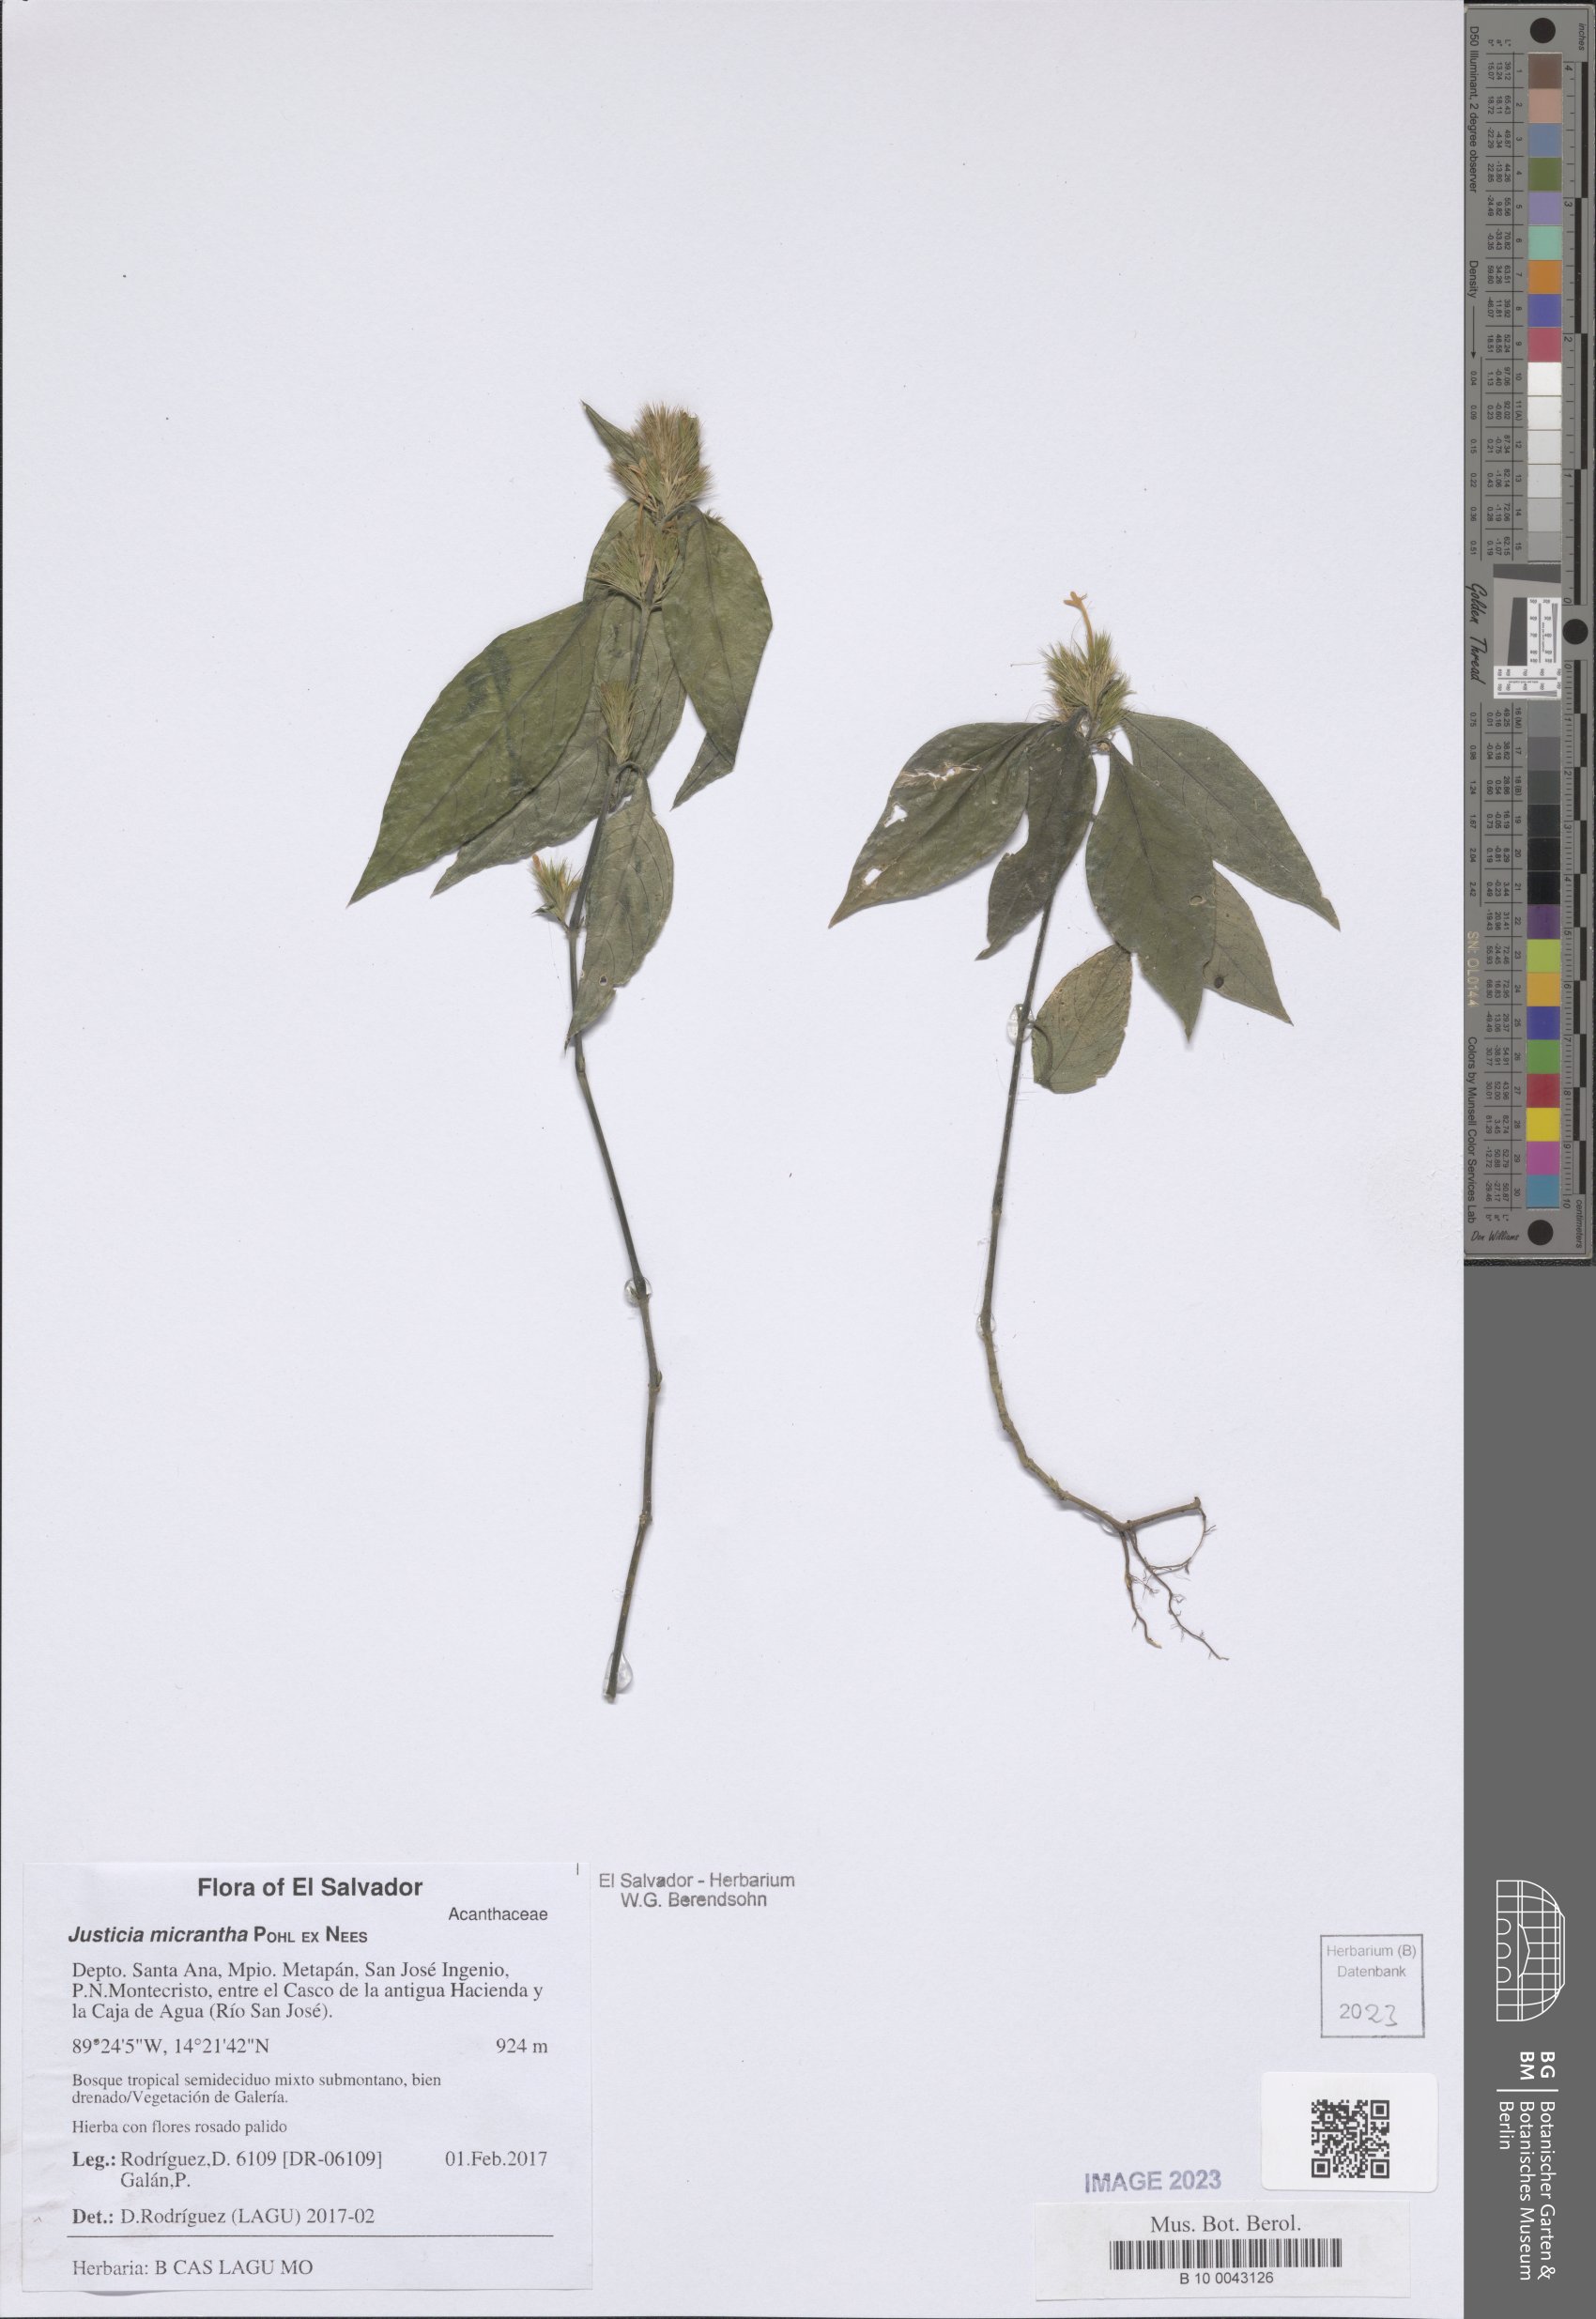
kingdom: Plantae
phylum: Tracheophyta
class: Magnoliopsida
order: Lamiales
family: Acanthaceae
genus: Justicia
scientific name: Justicia Tyloglossa adenostachya
